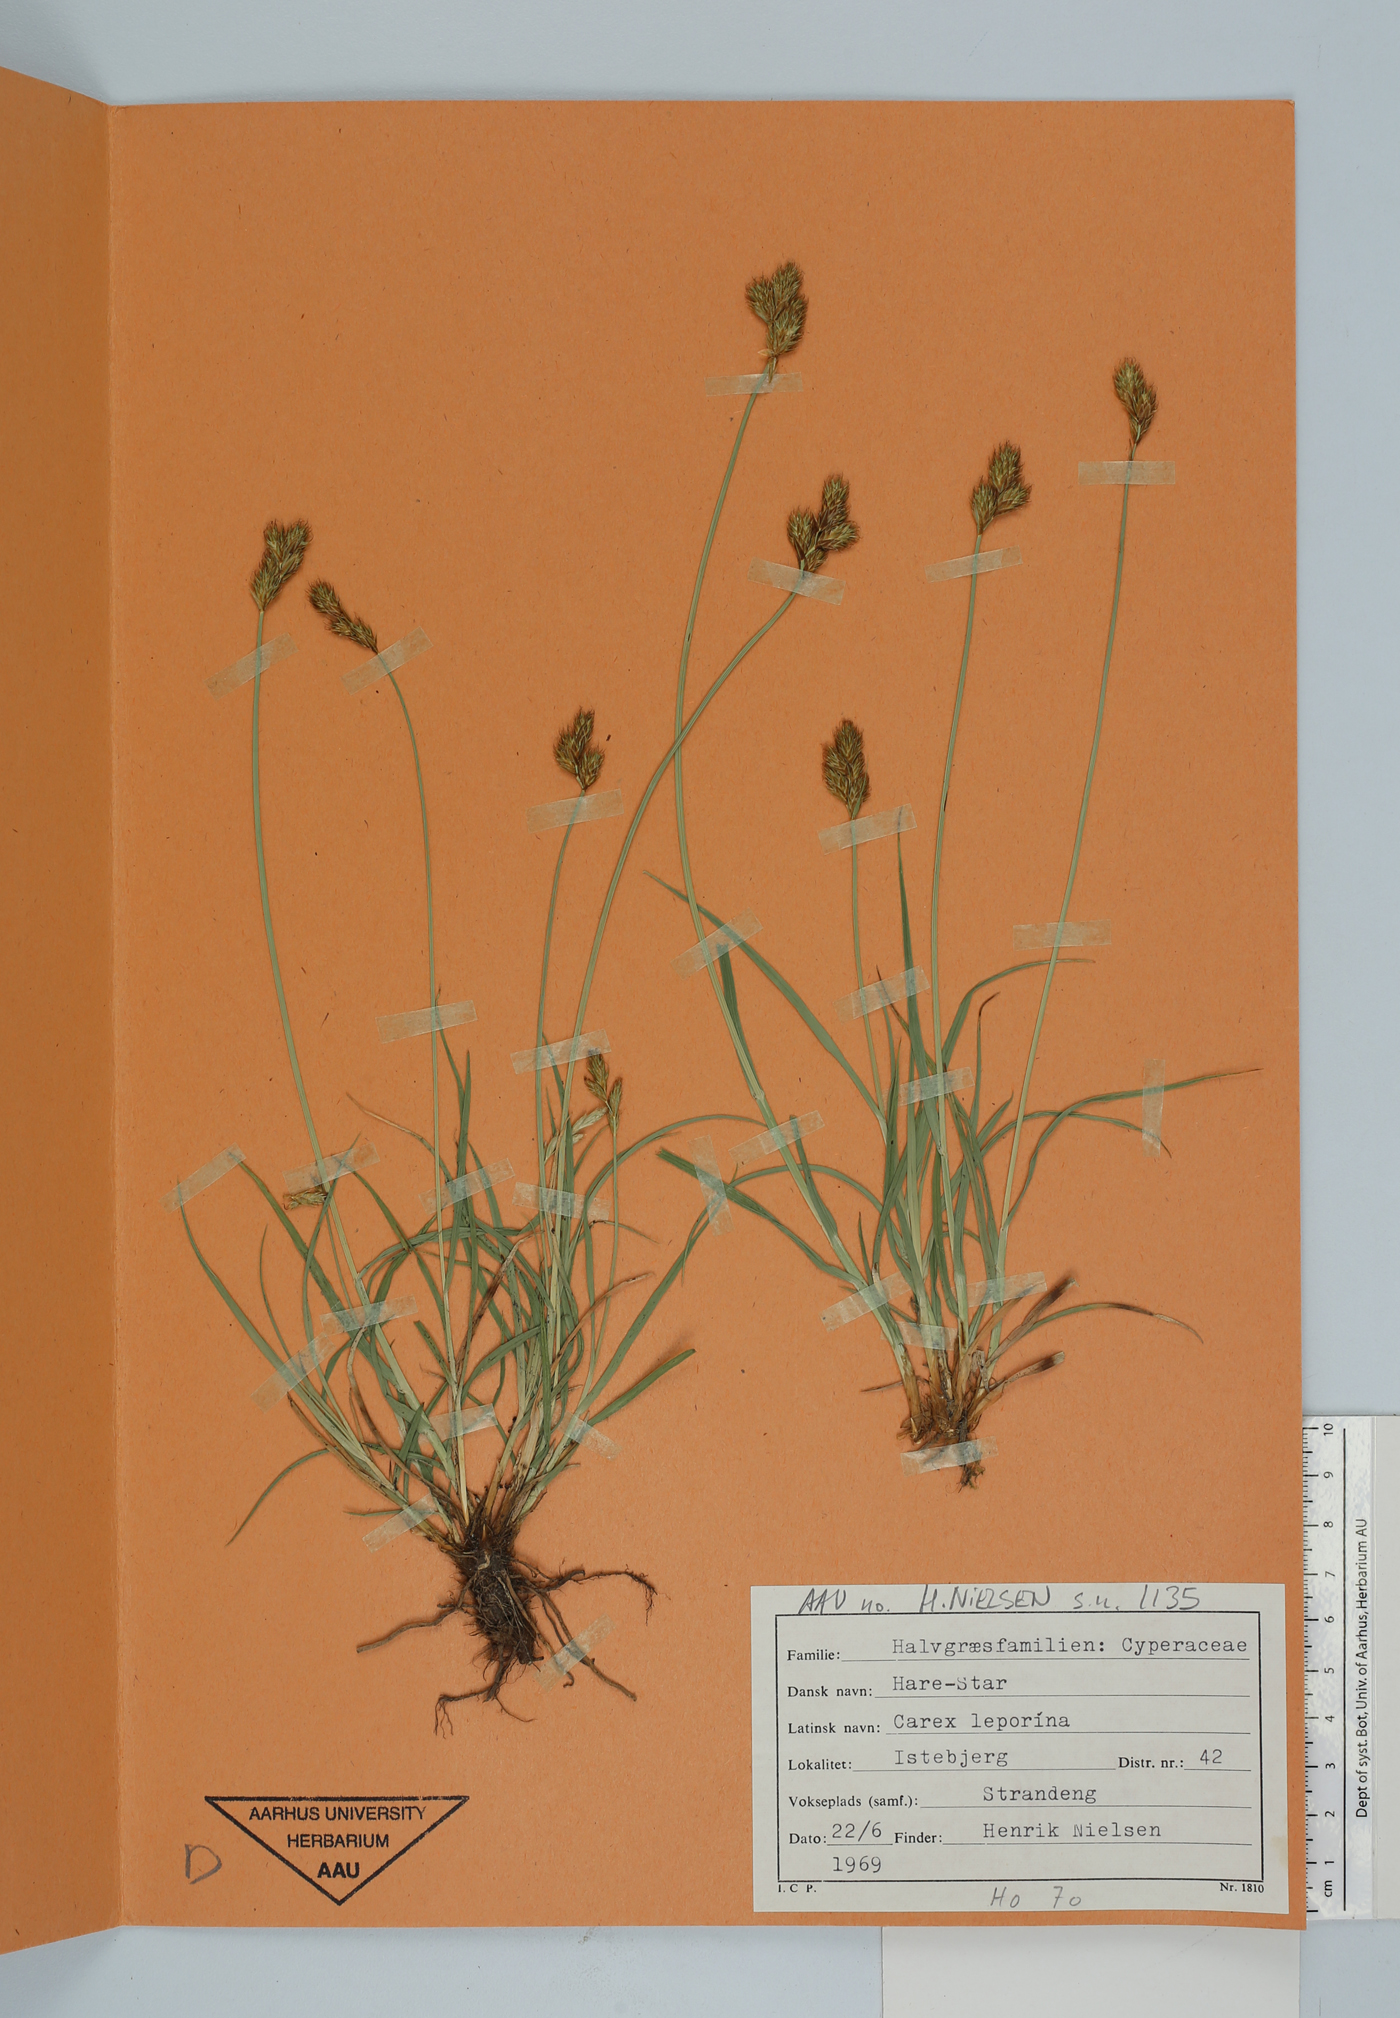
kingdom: Plantae
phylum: Tracheophyta
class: Liliopsida
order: Poales
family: Cyperaceae
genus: Carex
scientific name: Carex leporina
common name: Oval sedge
